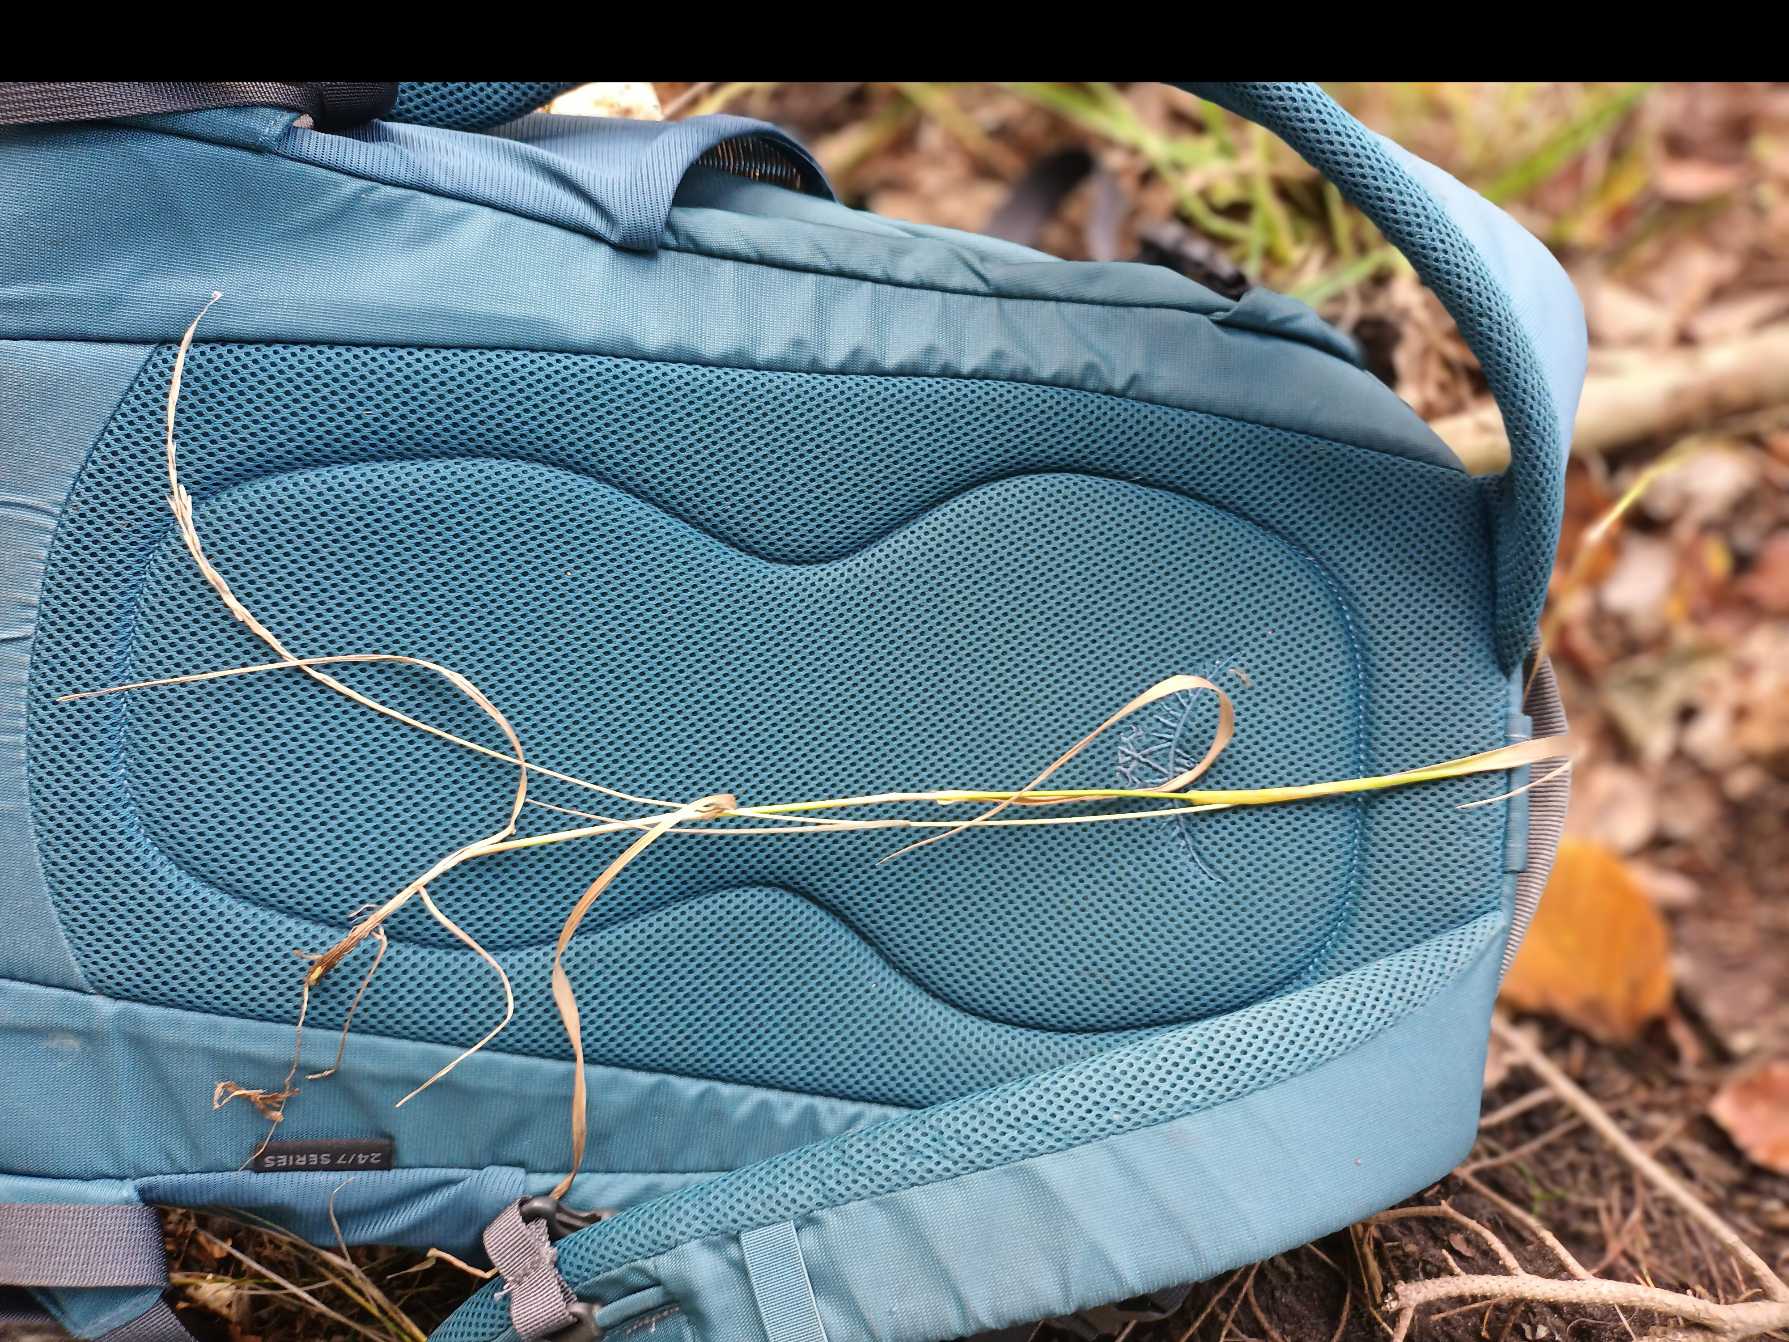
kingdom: Plantae
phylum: Tracheophyta
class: Liliopsida
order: Poales
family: Poaceae
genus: Brachypodium
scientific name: Brachypodium sylvaticum
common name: Skov-stilkaks
